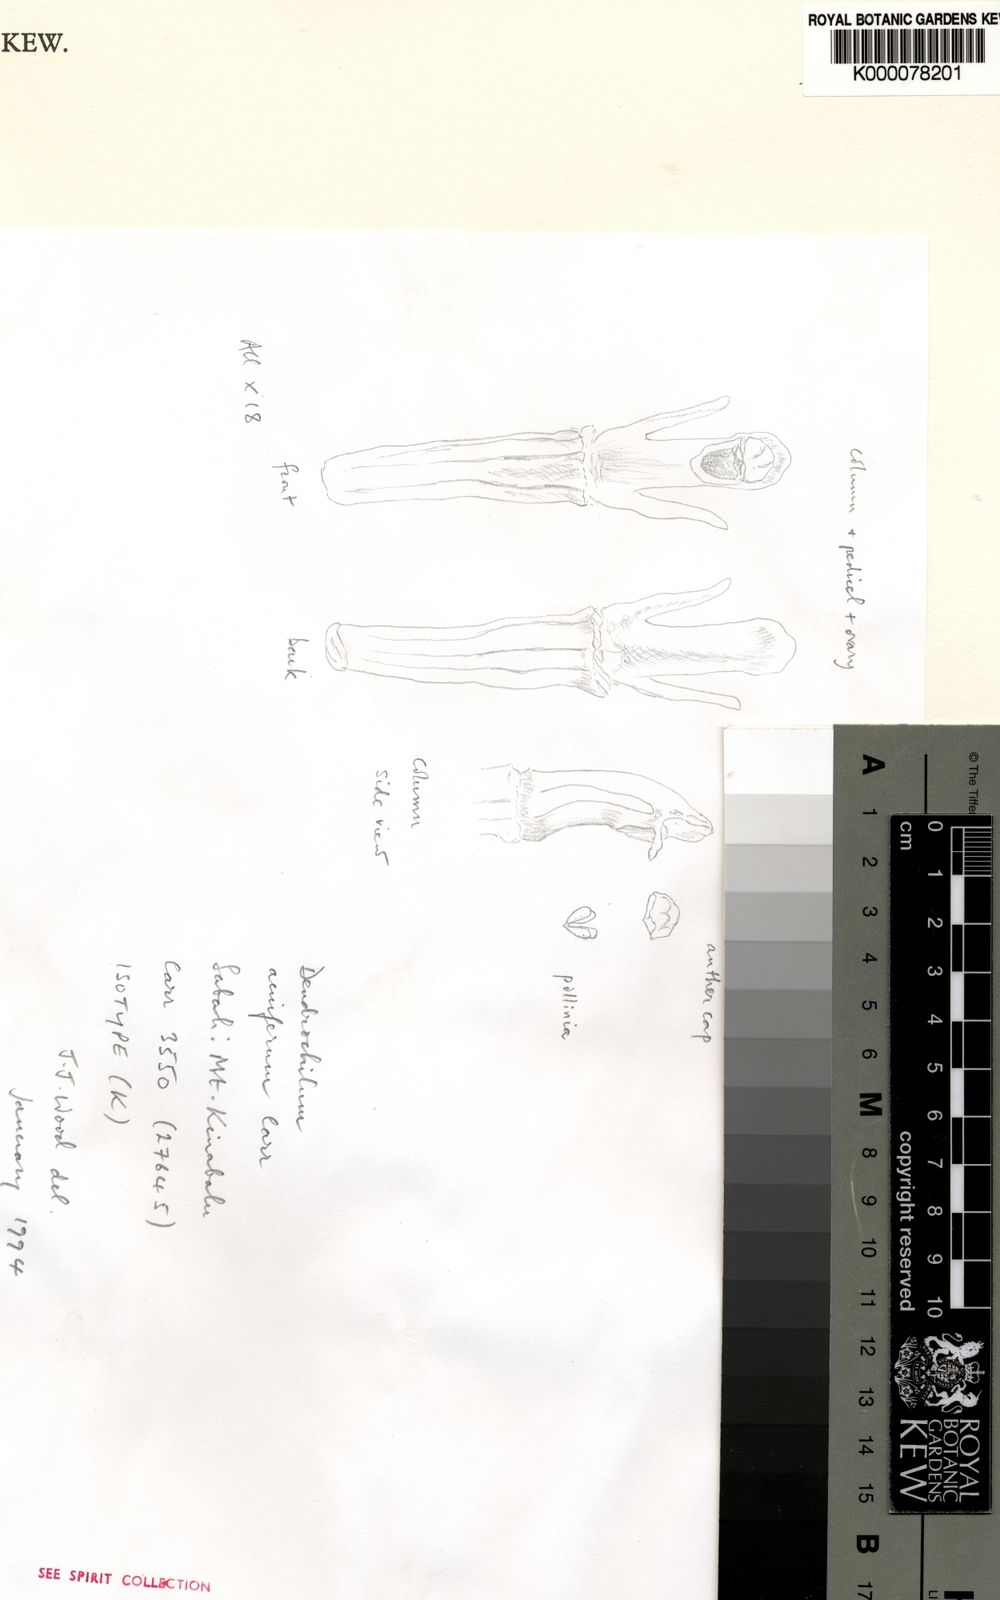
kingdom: Plantae
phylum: Tracheophyta
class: Liliopsida
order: Asparagales
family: Orchidaceae
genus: Coelogyne
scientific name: Coelogyne acuifera
